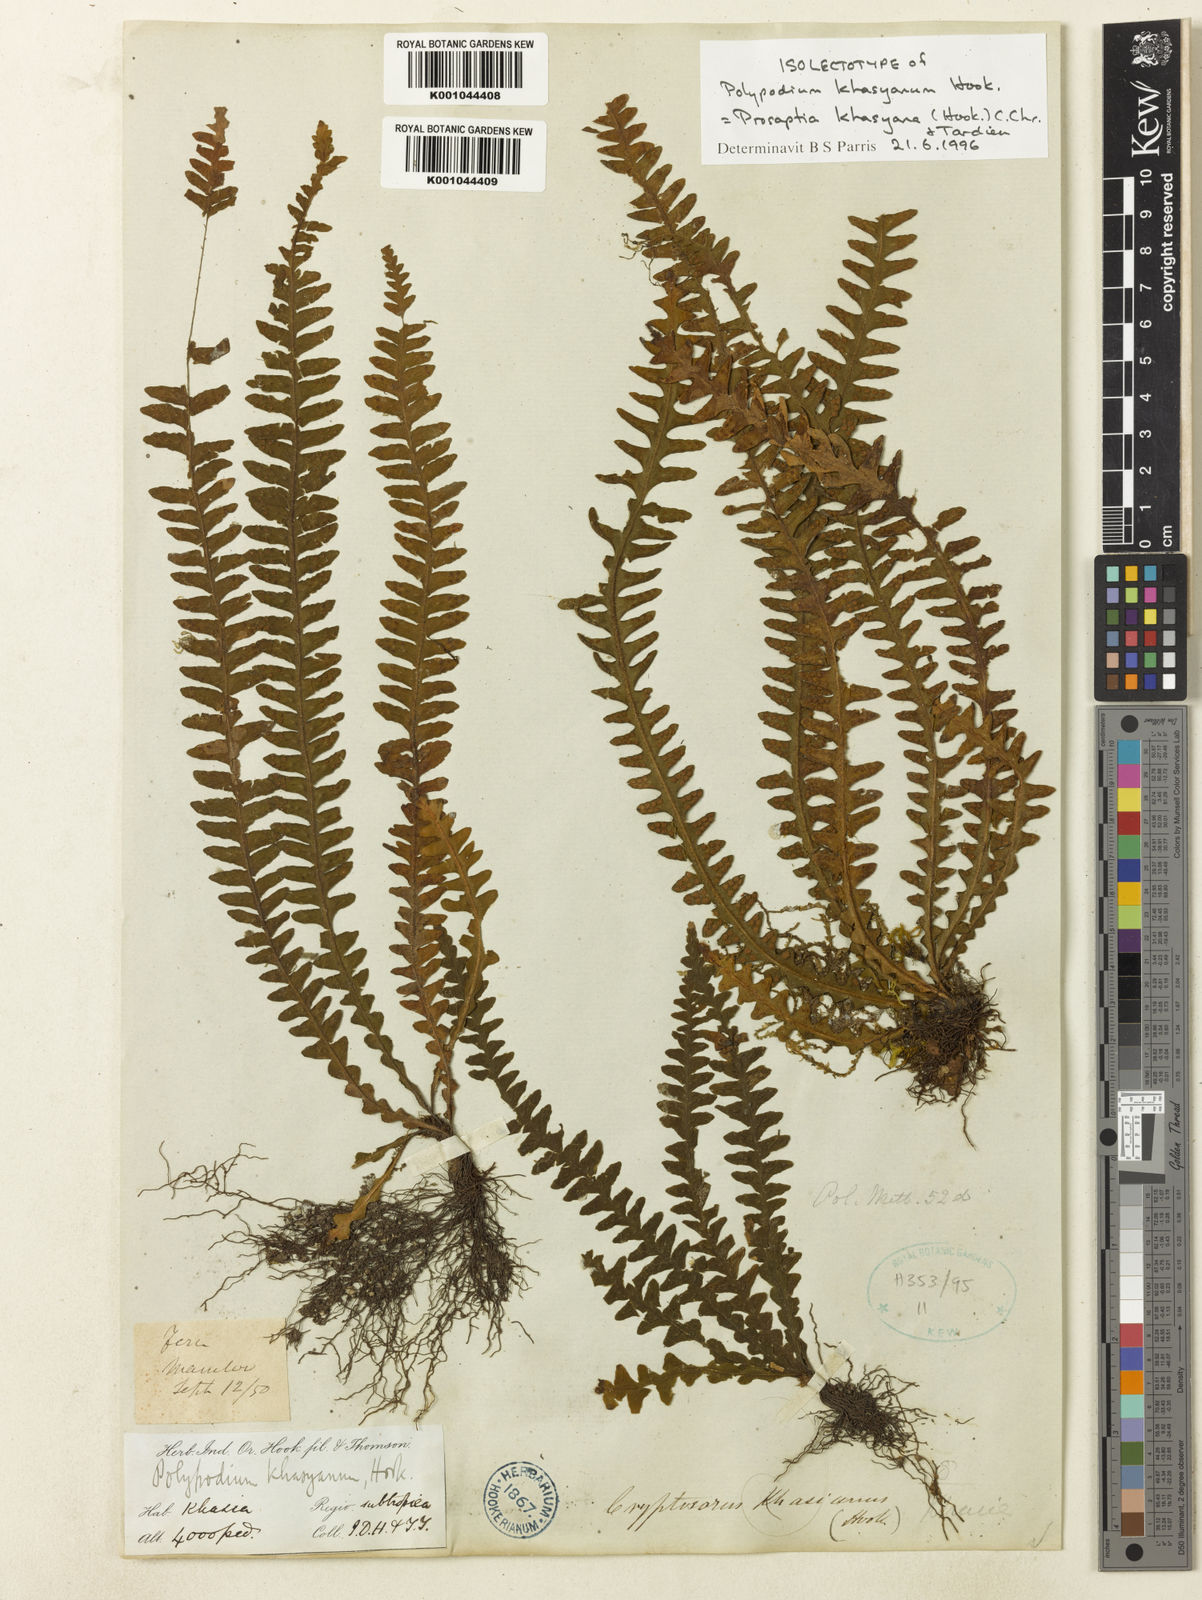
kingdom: Plantae
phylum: Tracheophyta
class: Polypodiopsida
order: Polypodiales
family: Polypodiaceae
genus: Polypodium
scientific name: Polypodium khasyanum
